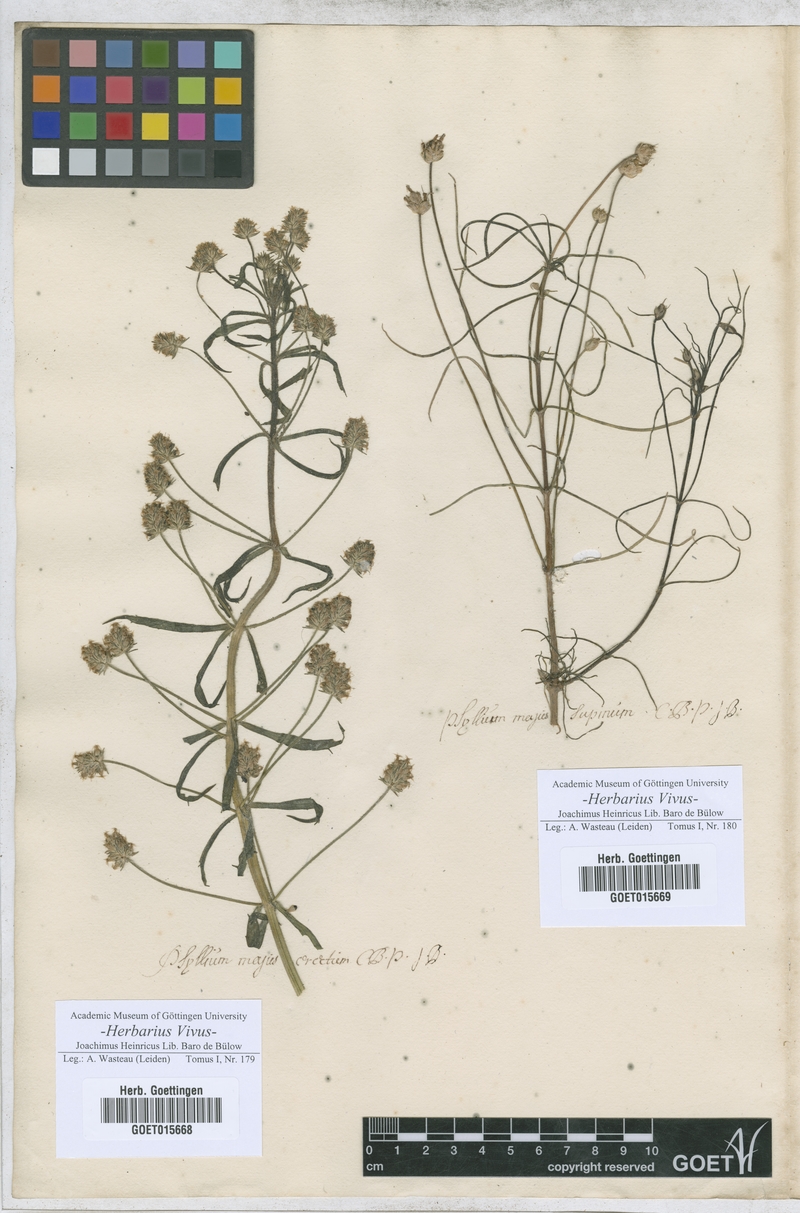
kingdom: Plantae
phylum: Tracheophyta
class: Magnoliopsida
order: Lamiales
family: Plantaginaceae
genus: Plantago
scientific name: Plantago sempervirens
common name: Shrubby plantain
